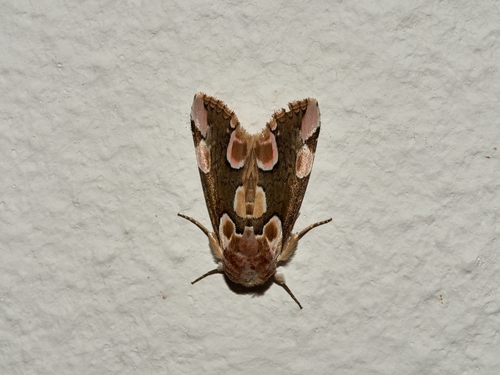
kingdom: Animalia
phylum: Arthropoda
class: Insecta
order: Lepidoptera
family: Drepanidae
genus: Thyatira
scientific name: Thyatira batis
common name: Peach blossom
